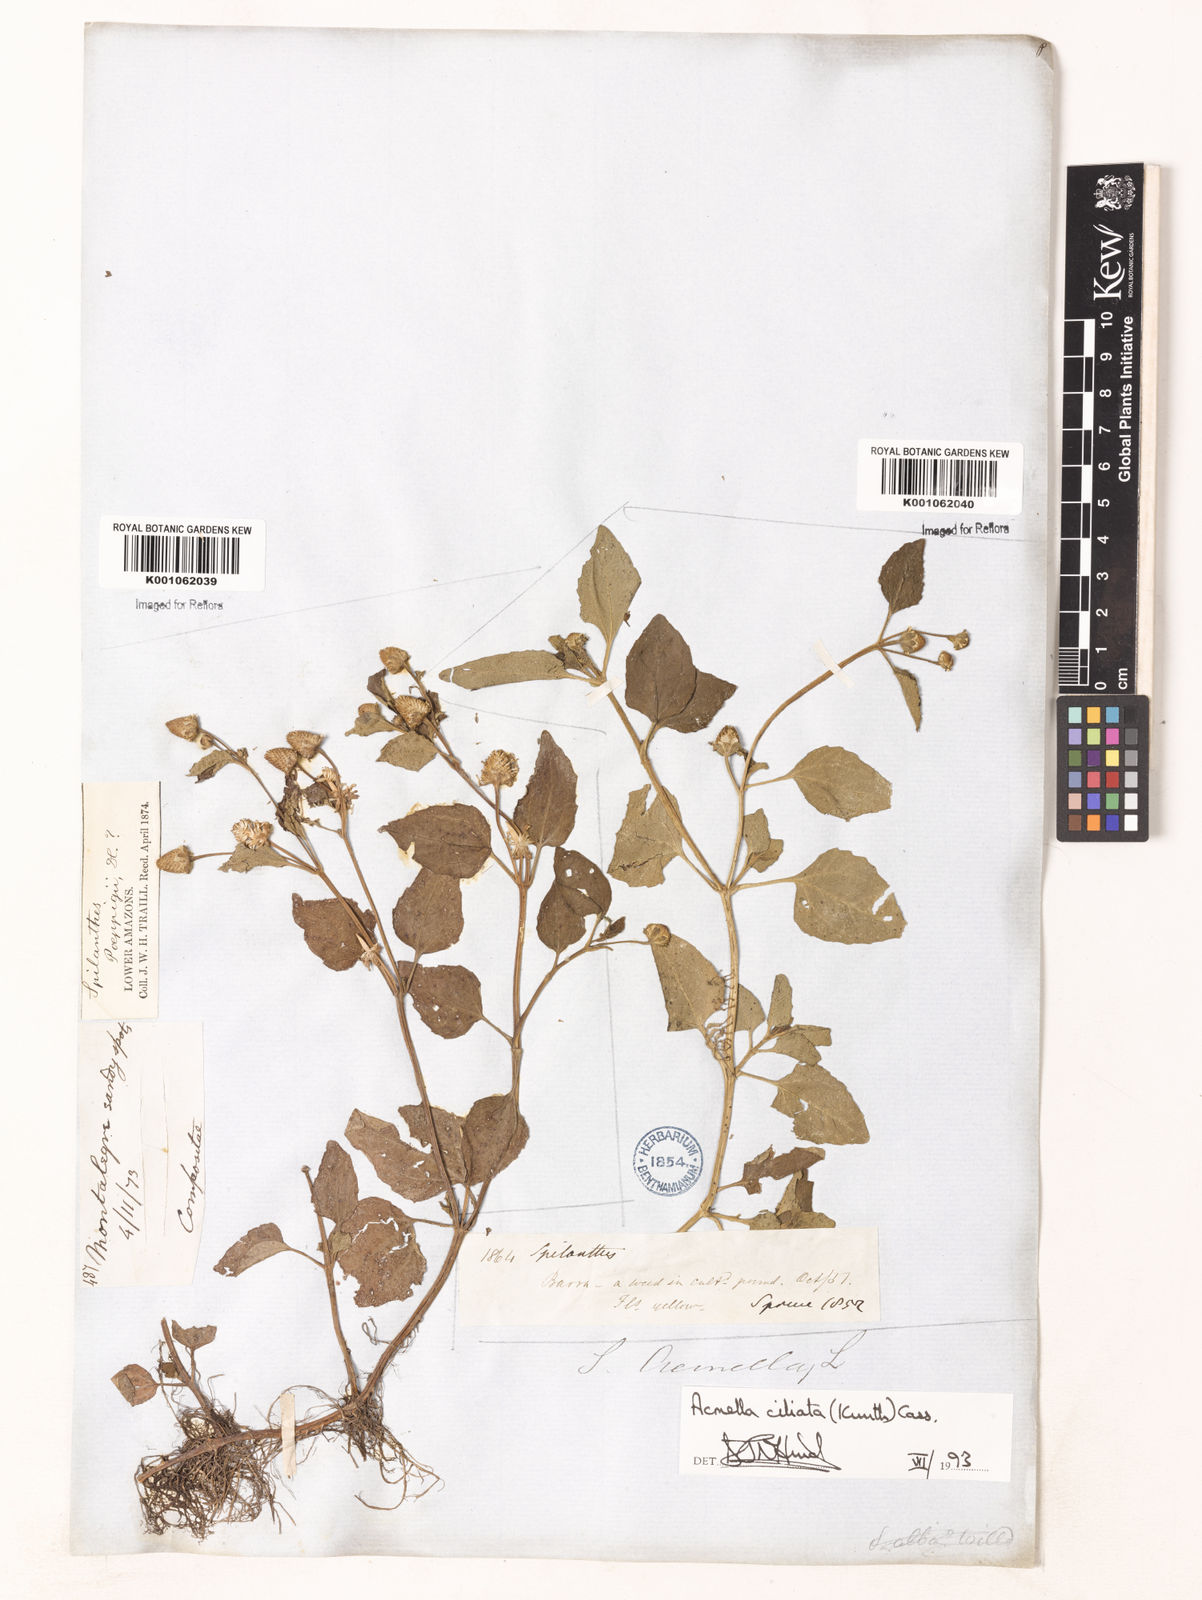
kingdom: Plantae
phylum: Tracheophyta
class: Magnoliopsida
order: Asterales
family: Asteraceae
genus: Acmella
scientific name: Acmella ciliata
